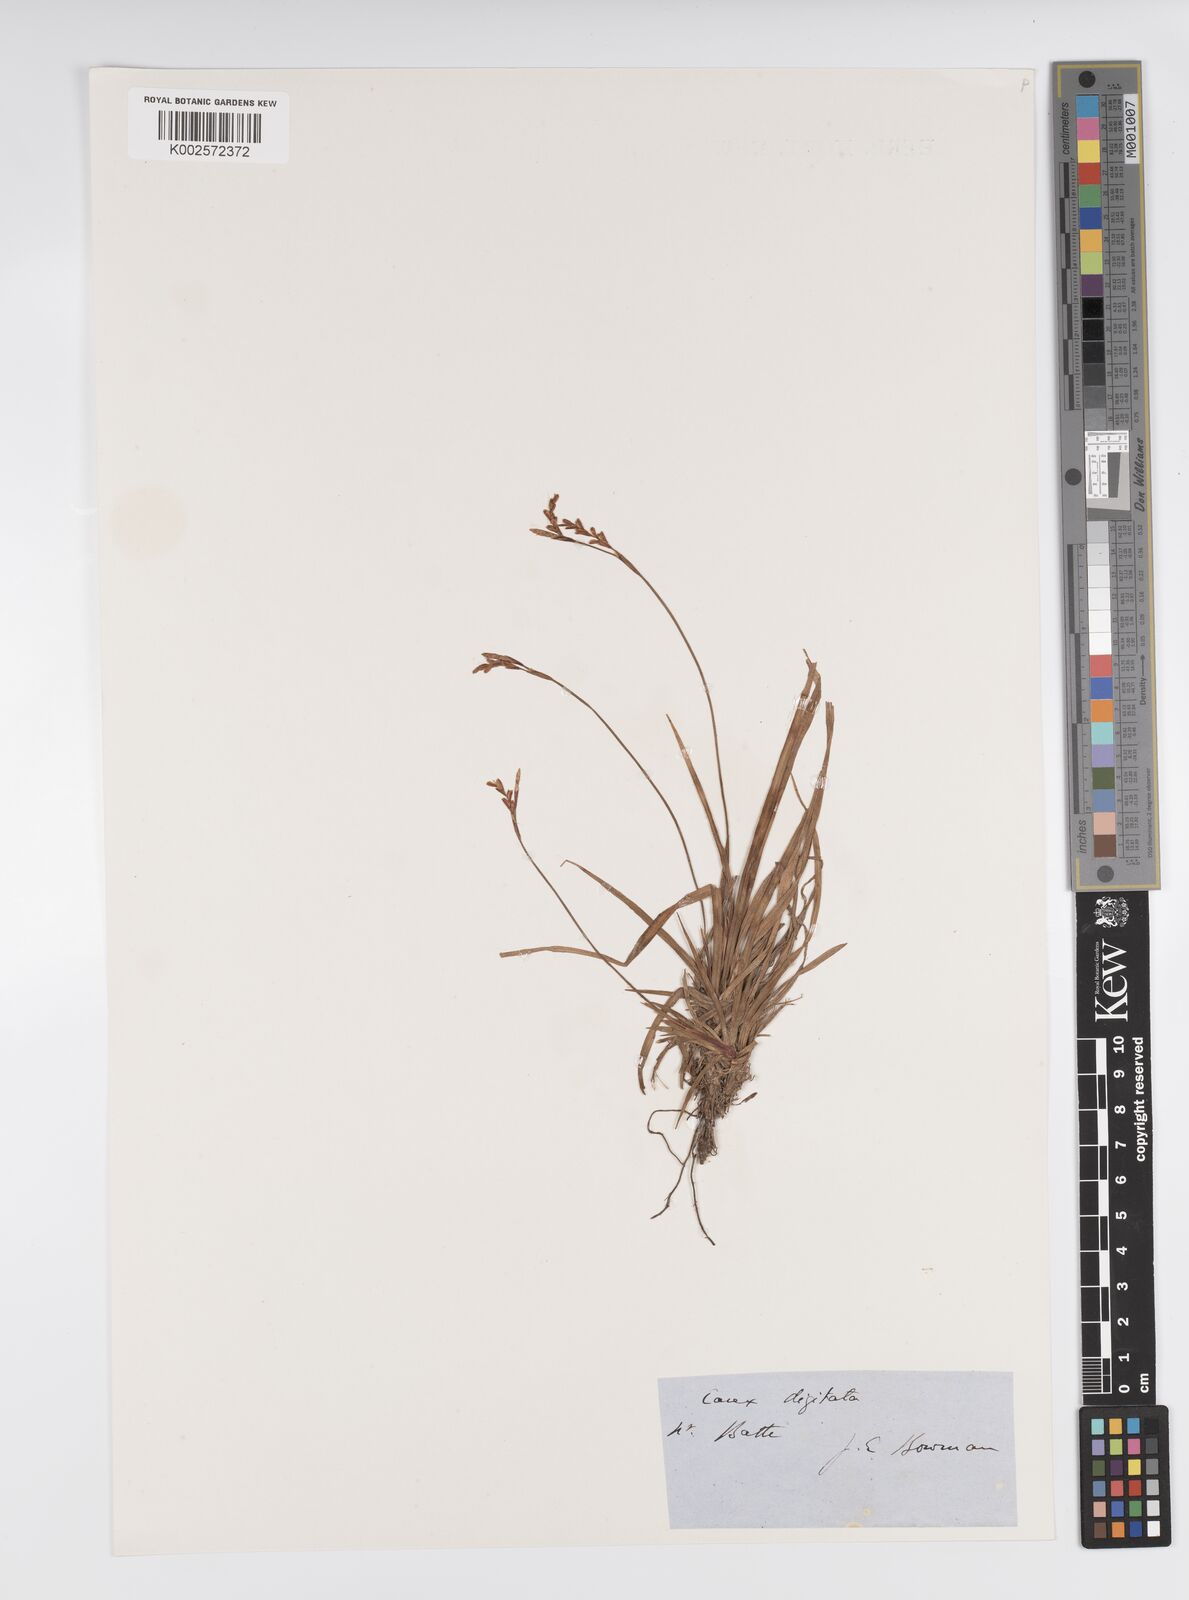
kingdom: Plantae
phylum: Tracheophyta
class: Liliopsida
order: Poales
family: Cyperaceae
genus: Carex
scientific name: Carex digitata
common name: Fingered sedge
